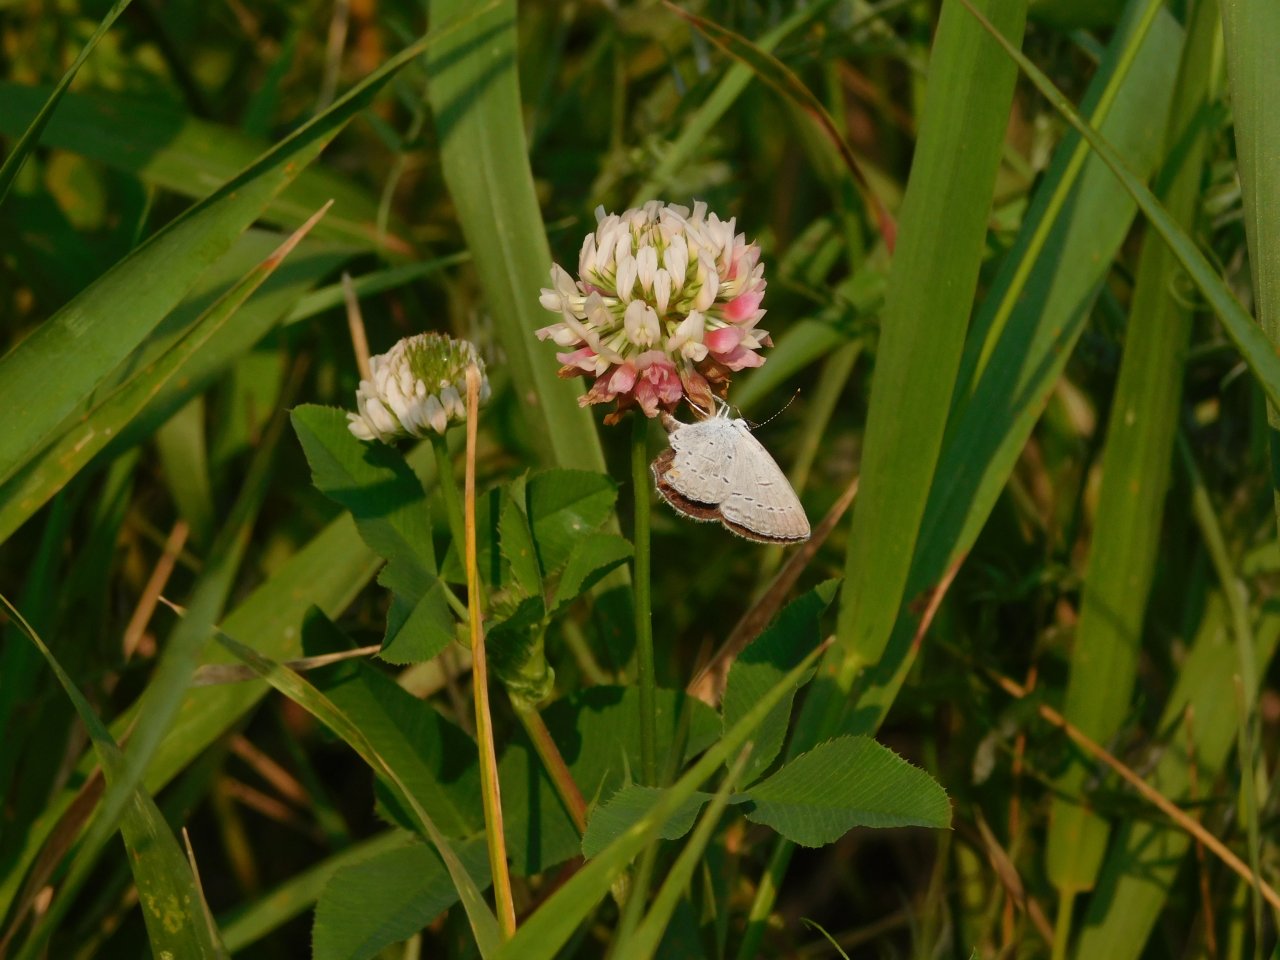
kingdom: Animalia
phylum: Arthropoda
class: Insecta
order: Lepidoptera
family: Lycaenidae
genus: Elkalyce
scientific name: Elkalyce comyntas
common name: Eastern Tailed-Blue
